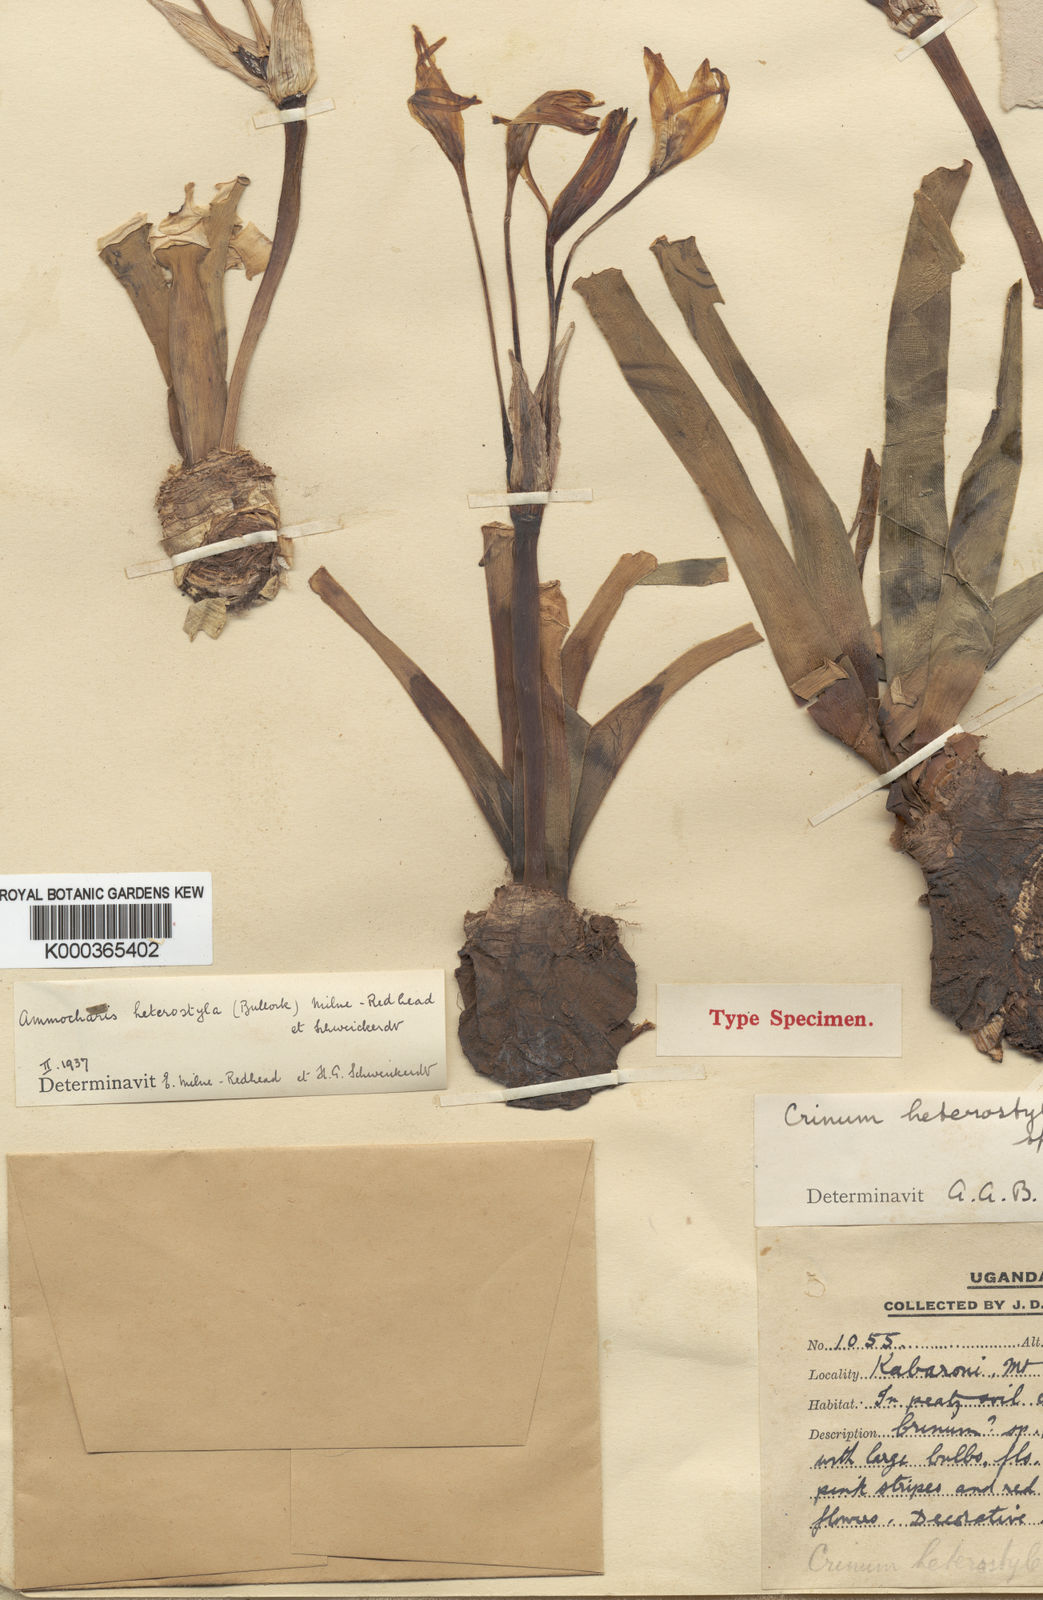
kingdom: Plantae
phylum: Tracheophyta
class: Liliopsida
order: Asparagales
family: Amaryllidaceae
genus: Ammocharis
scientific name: Ammocharis angolensis
